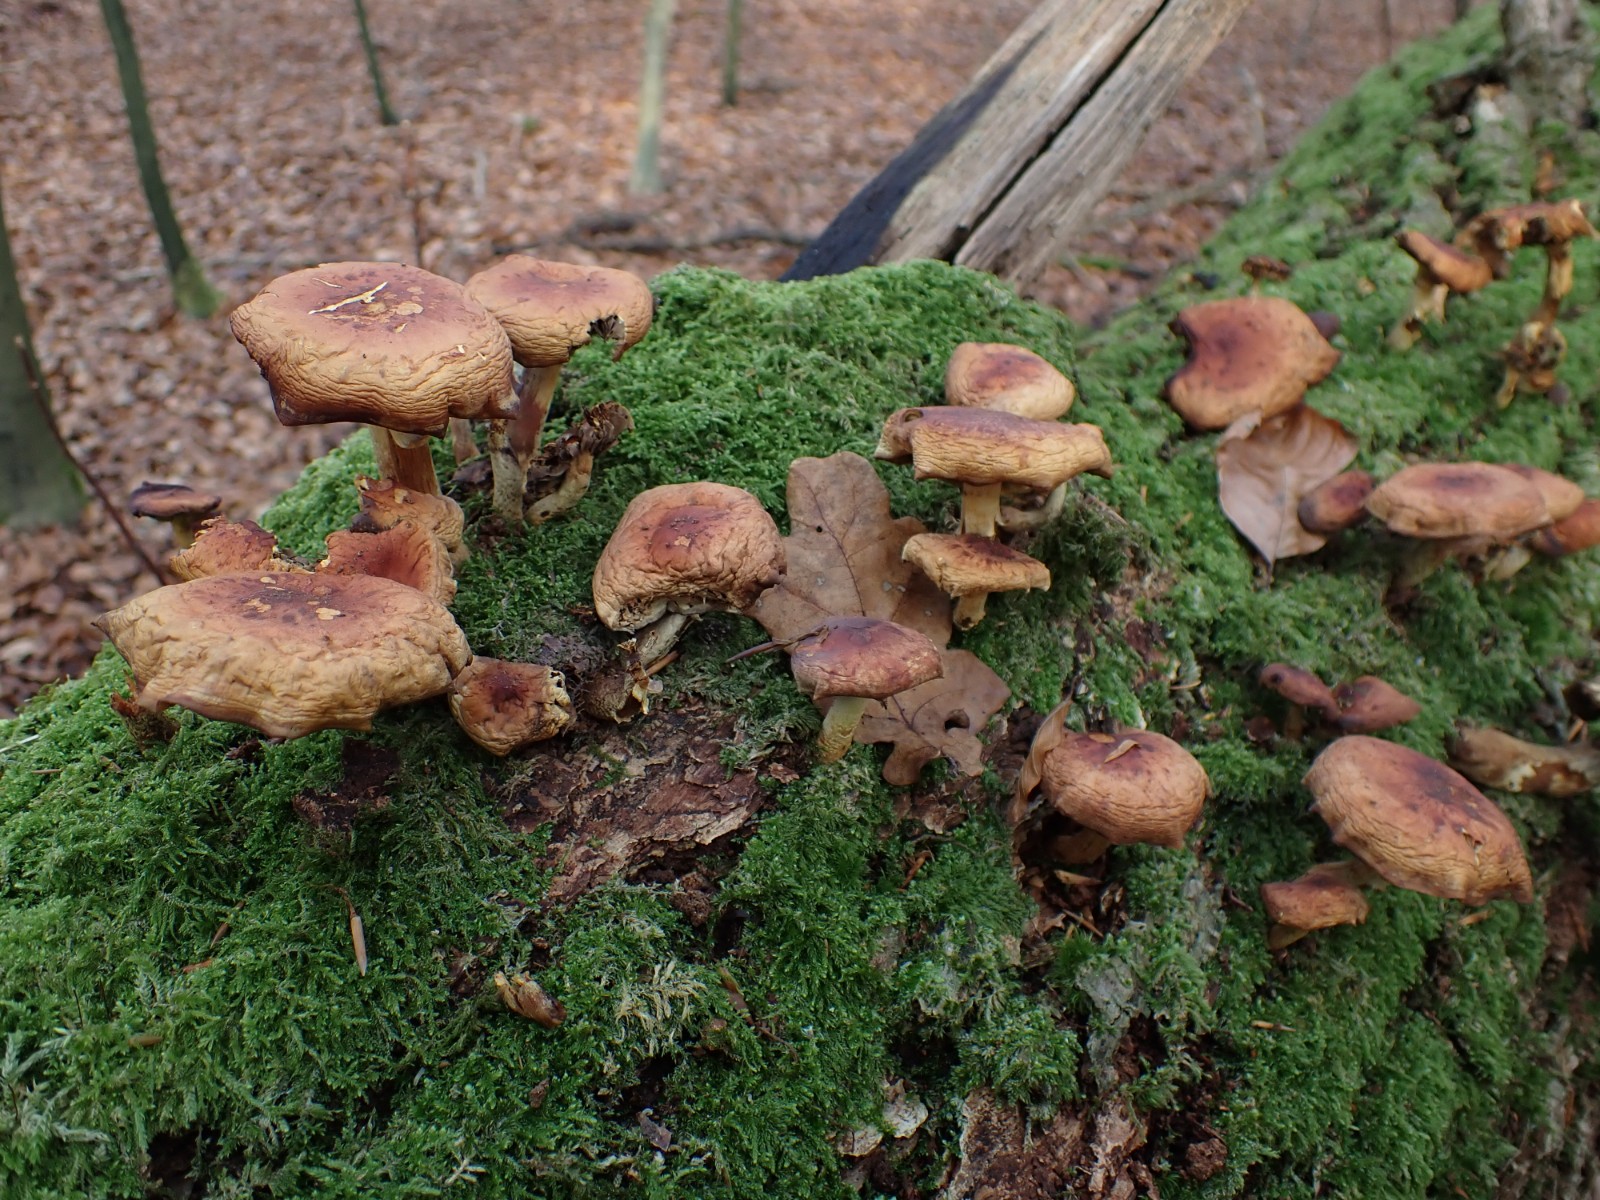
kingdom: Fungi
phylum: Basidiomycota
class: Agaricomycetes
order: Agaricales
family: Strophariaceae
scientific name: Strophariaceae
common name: bredbladfamilien
